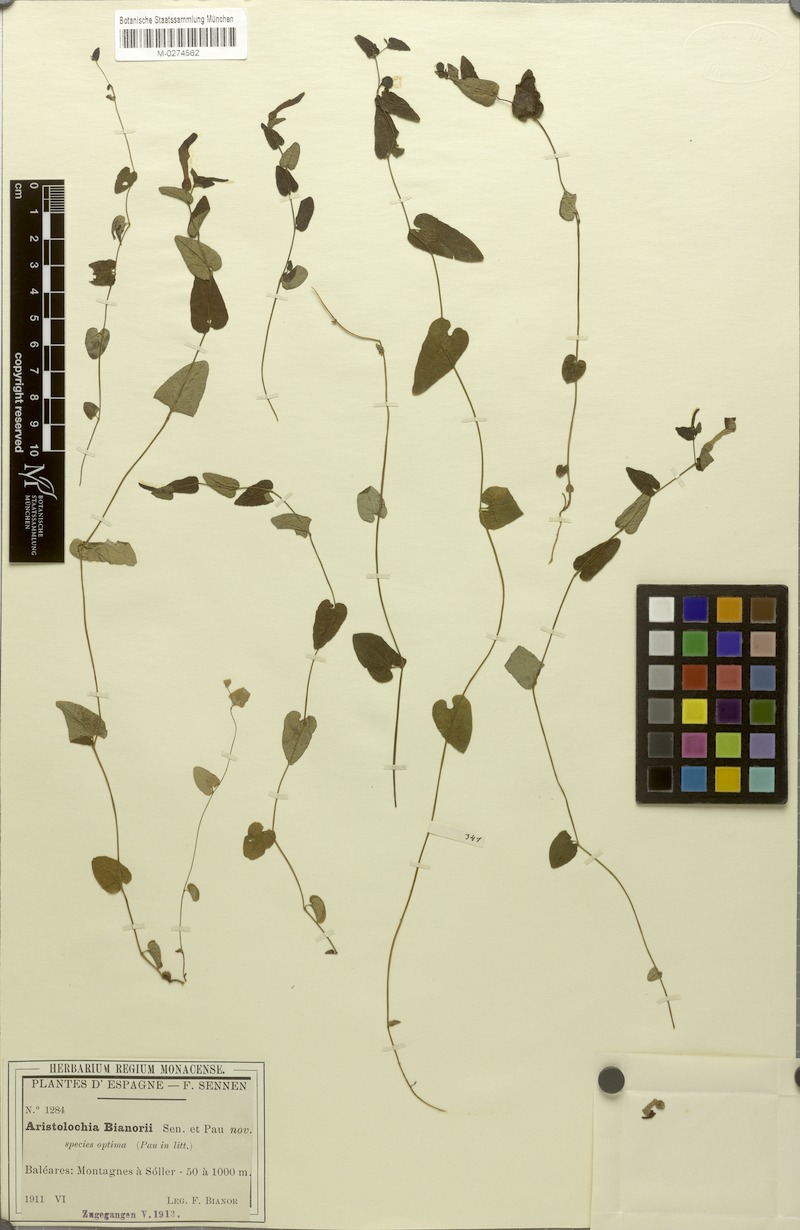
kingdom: Plantae
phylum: Tracheophyta
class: Magnoliopsida
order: Piperales
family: Aristolochiaceae
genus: Aristolochia
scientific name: Aristolochia bianorii
